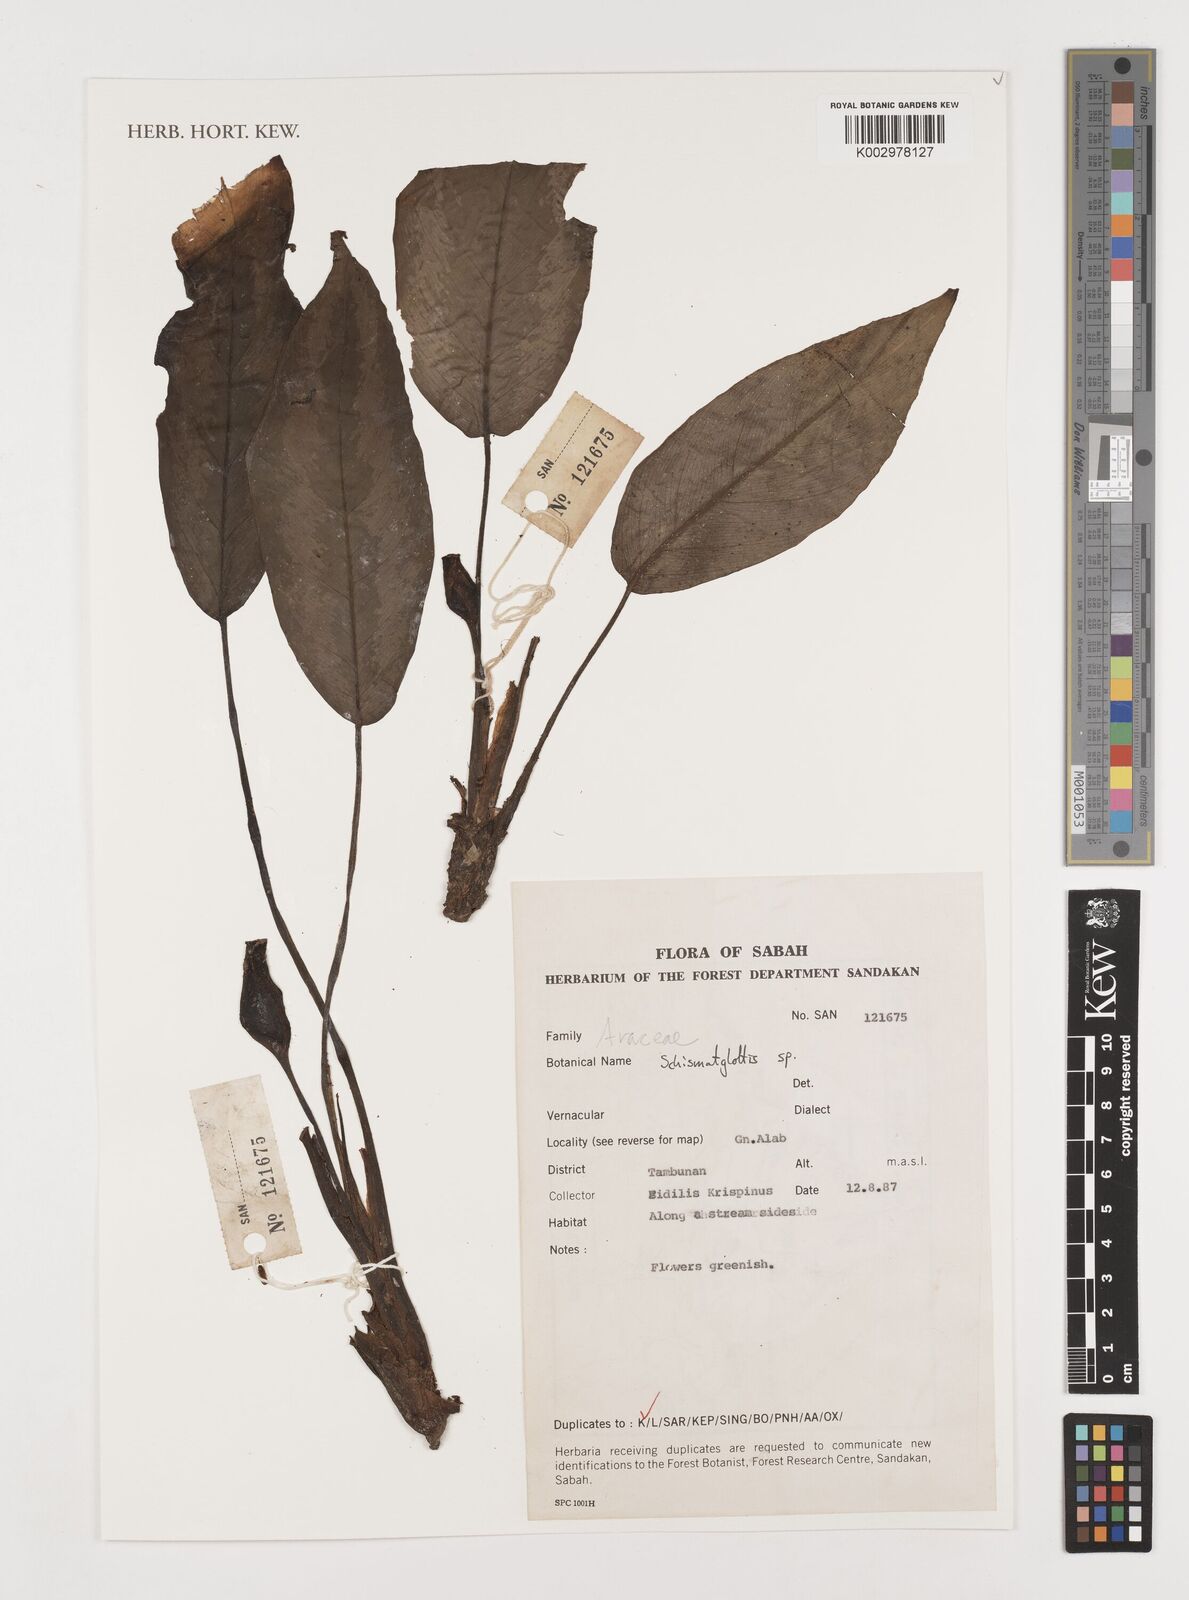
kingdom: Plantae
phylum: Tracheophyta
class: Liliopsida
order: Alismatales
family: Araceae
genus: Schismatoglottis
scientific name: Schismatoglottis
